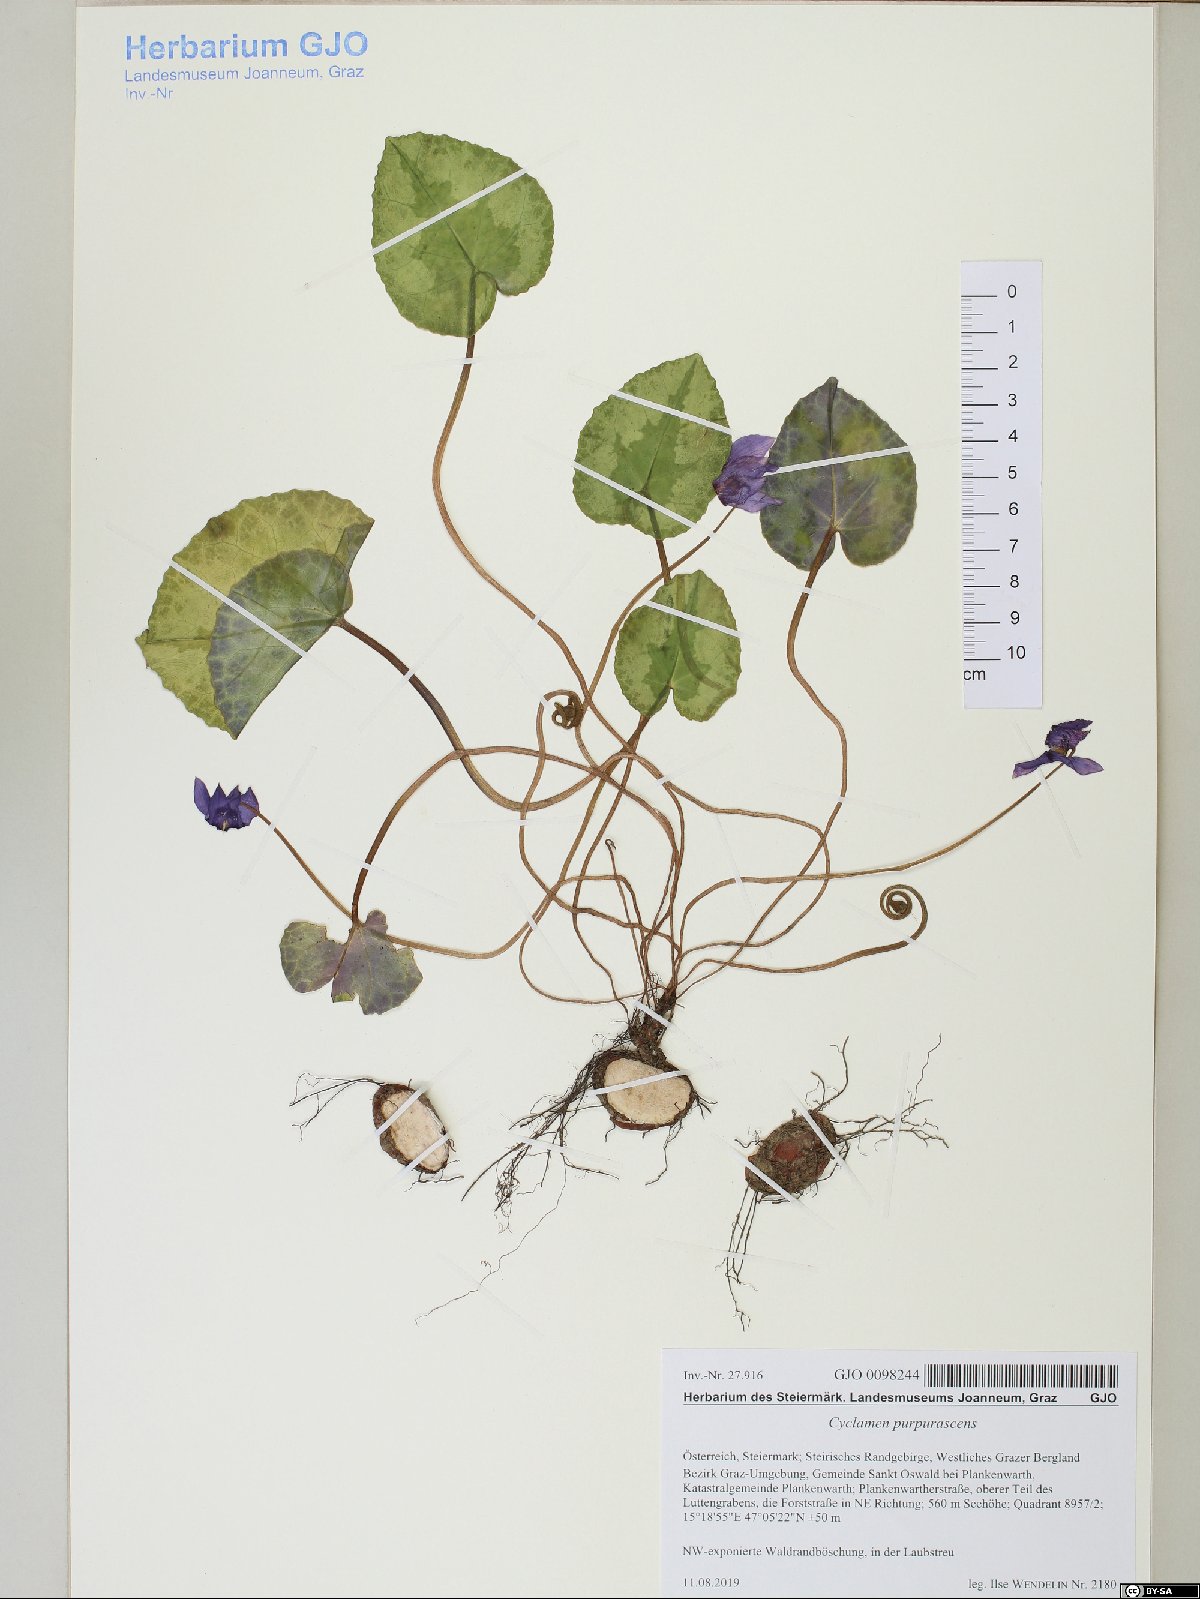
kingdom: Plantae
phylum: Tracheophyta
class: Magnoliopsida
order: Ericales
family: Primulaceae
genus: Cyclamen
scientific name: Cyclamen purpurascens
